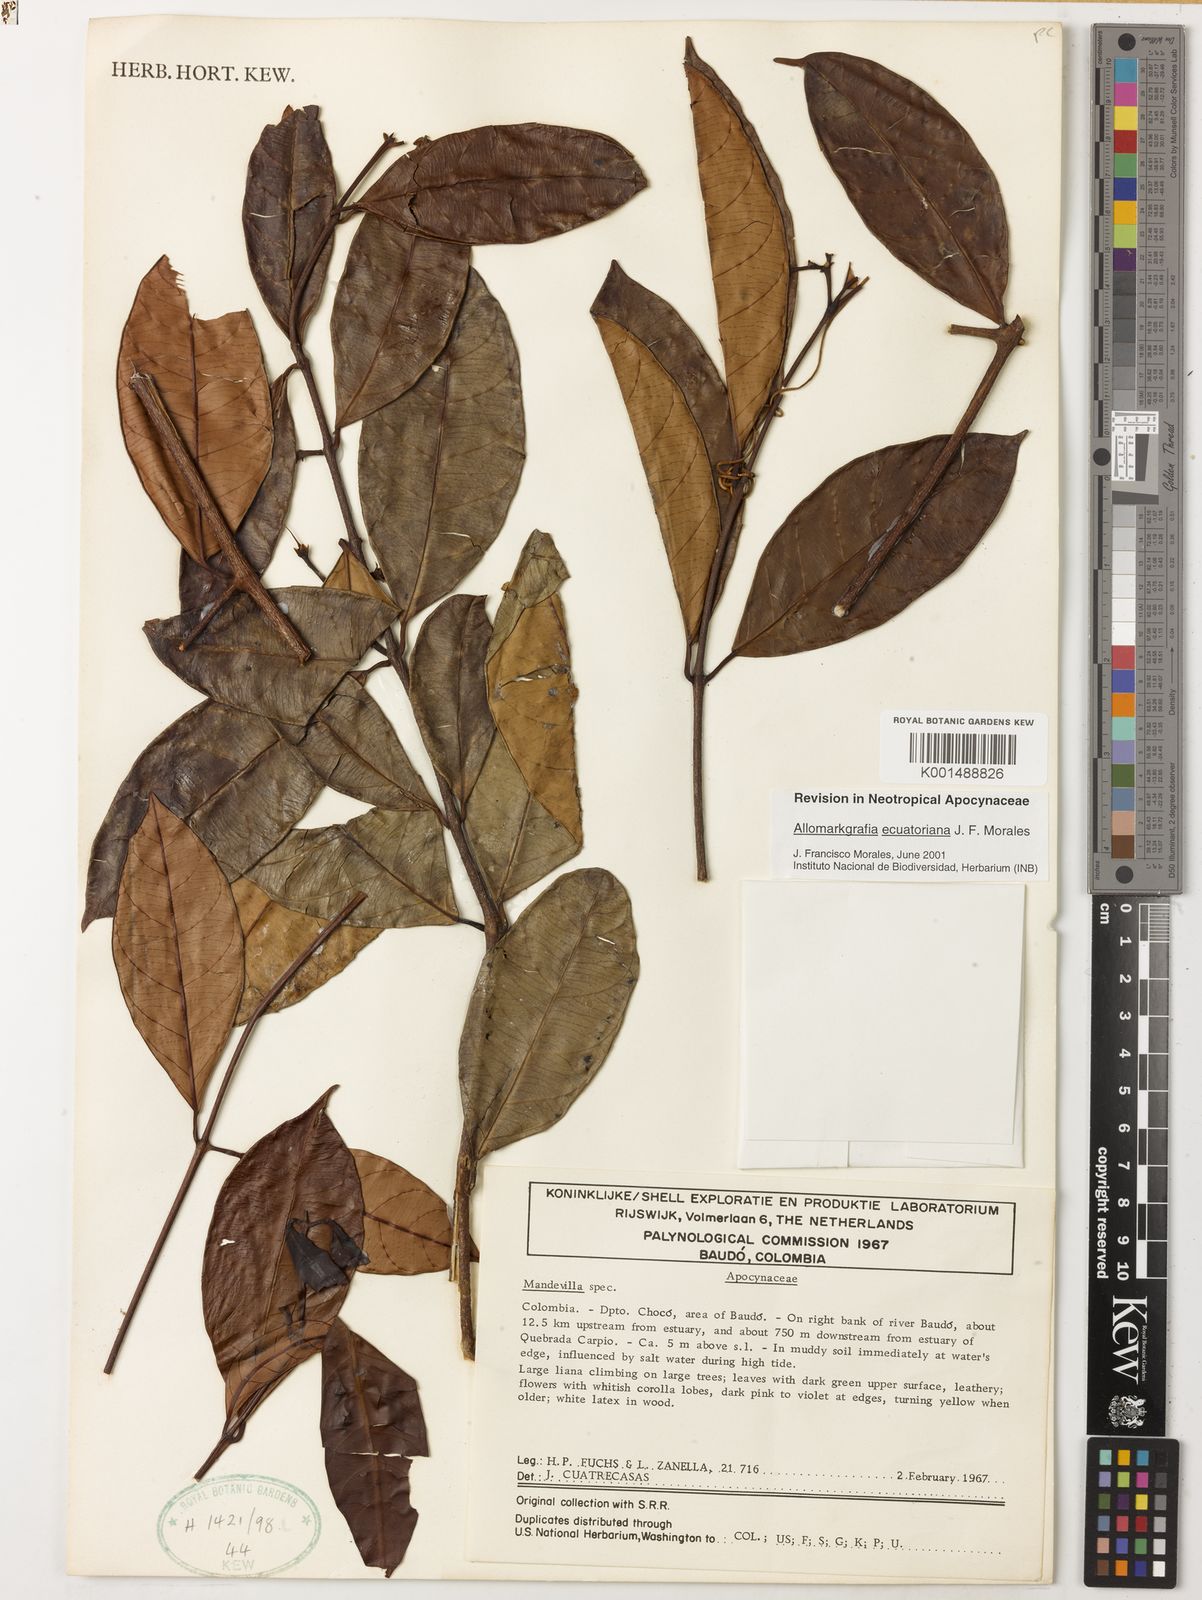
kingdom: Plantae
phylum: Tracheophyta
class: Magnoliopsida
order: Gentianales
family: Apocynaceae
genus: Allomarkgrafia
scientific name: Allomarkgrafia ecuatoriana
